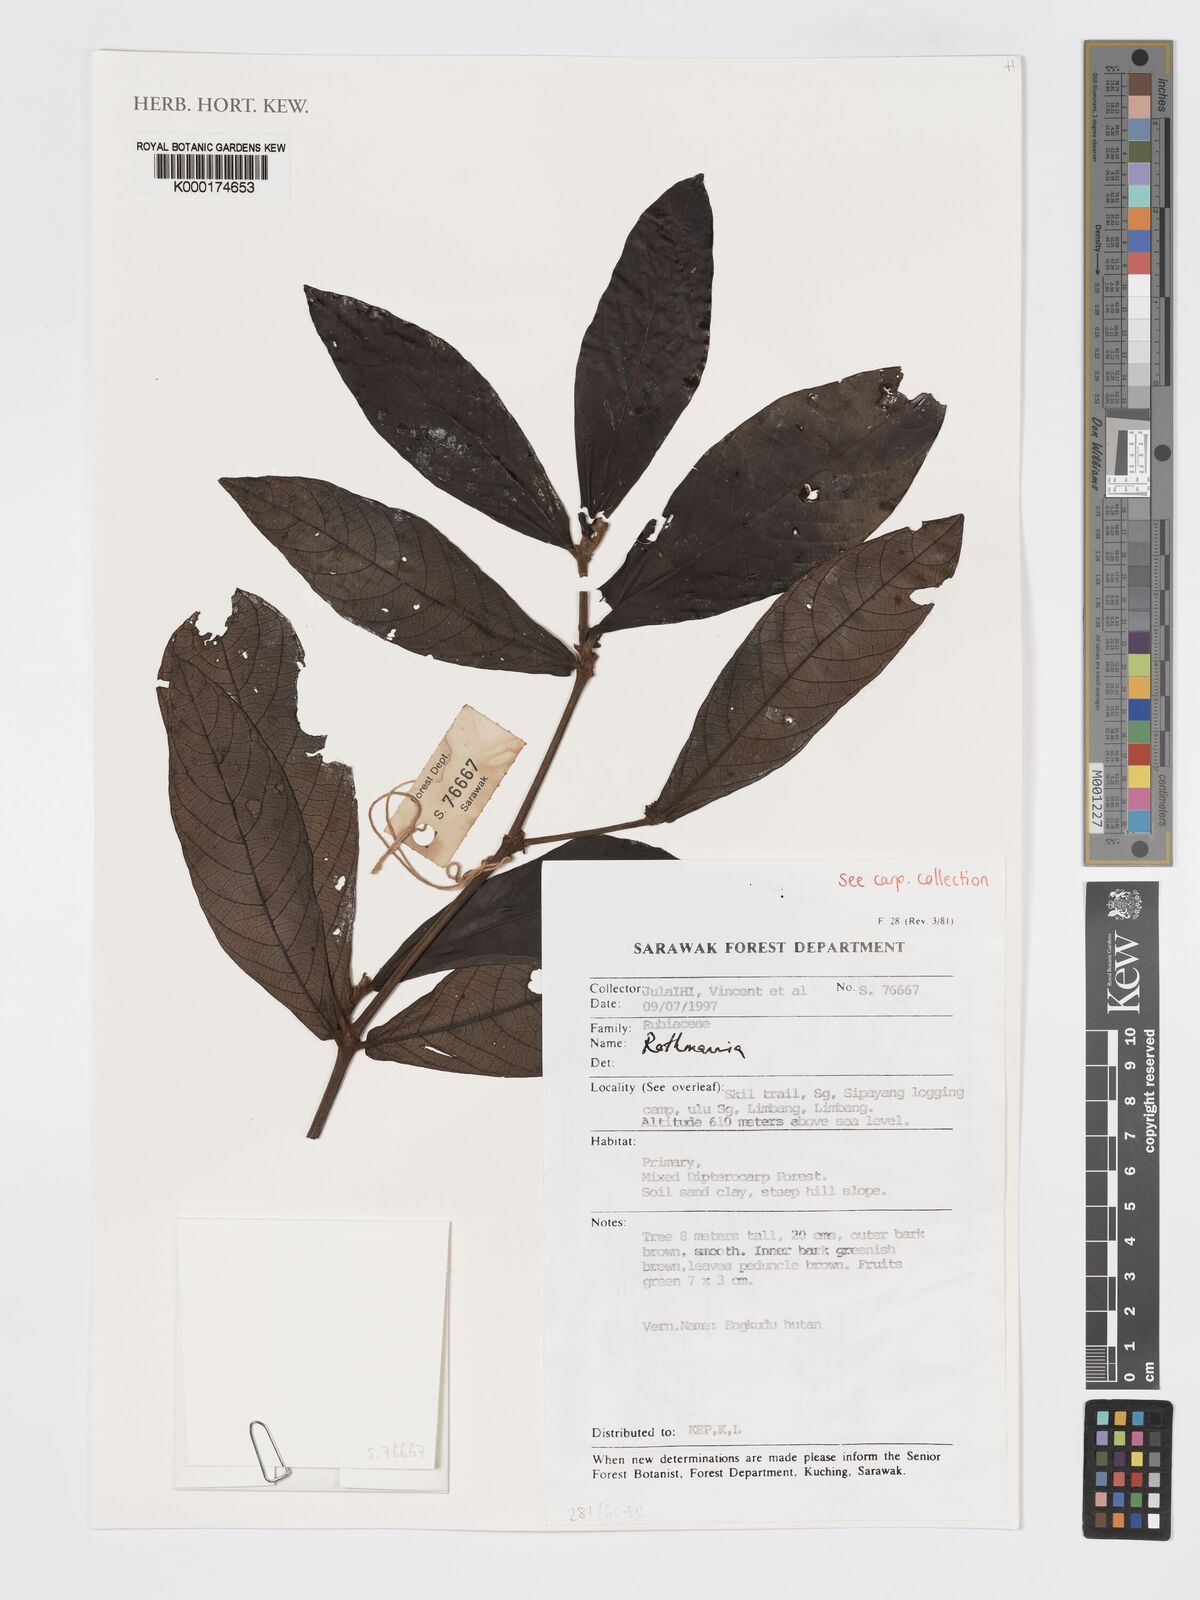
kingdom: Plantae
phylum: Tracheophyta
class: Magnoliopsida
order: Gentianales
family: Rubiaceae
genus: Ridsdalea
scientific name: Ridsdalea
